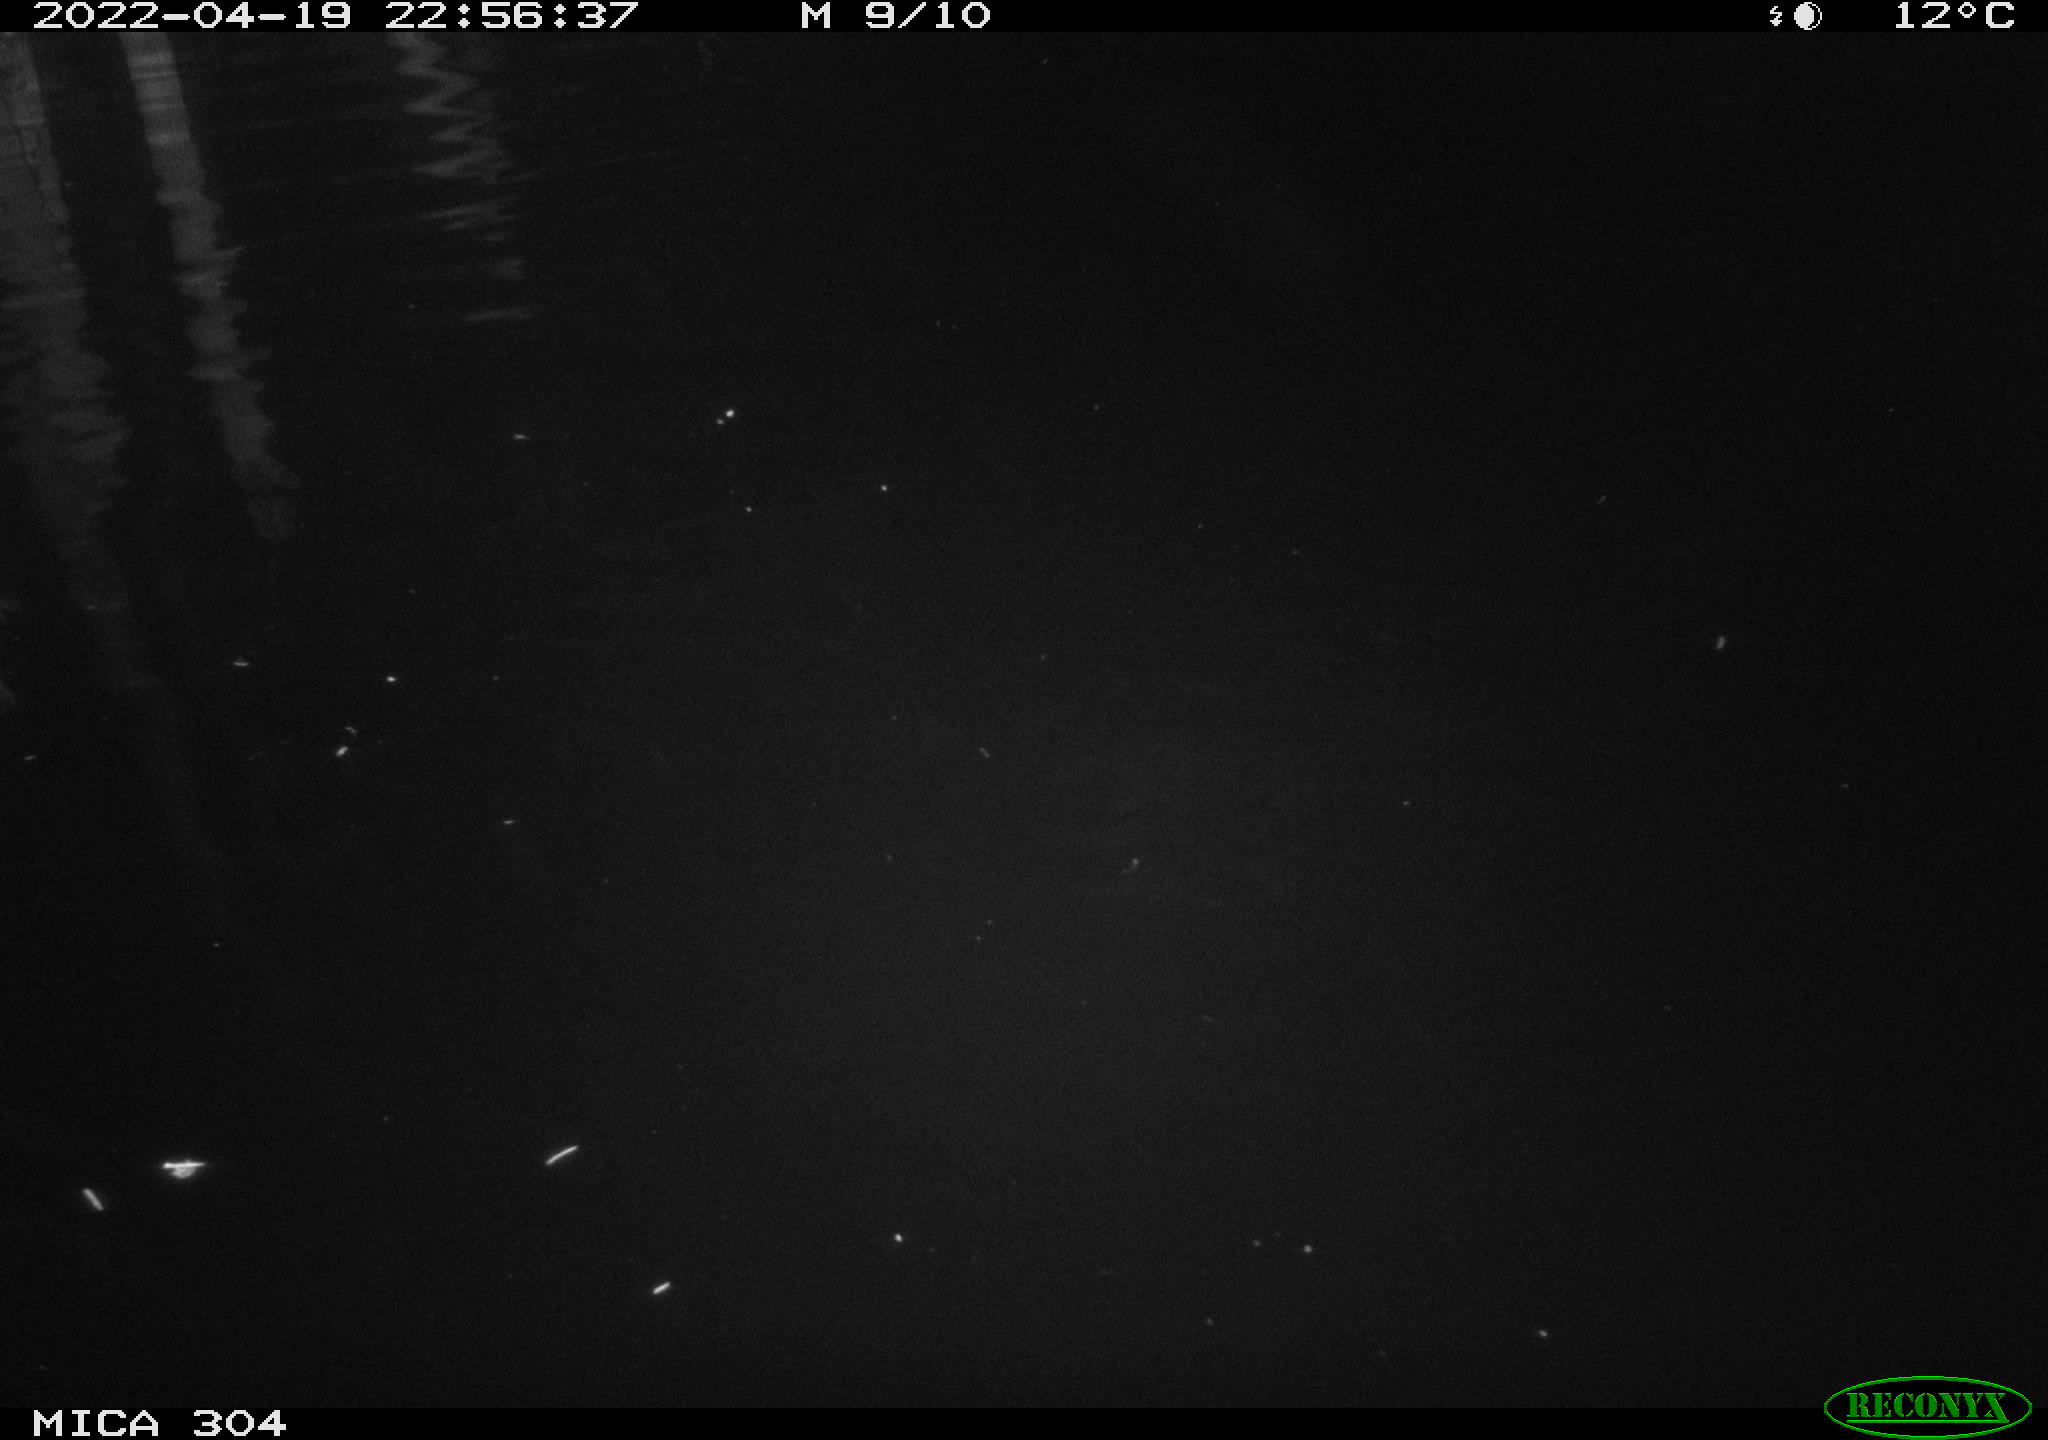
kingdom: Animalia
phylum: Chordata
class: Mammalia
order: Rodentia
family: Muridae
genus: Rattus
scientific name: Rattus norvegicus
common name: Brown rat
